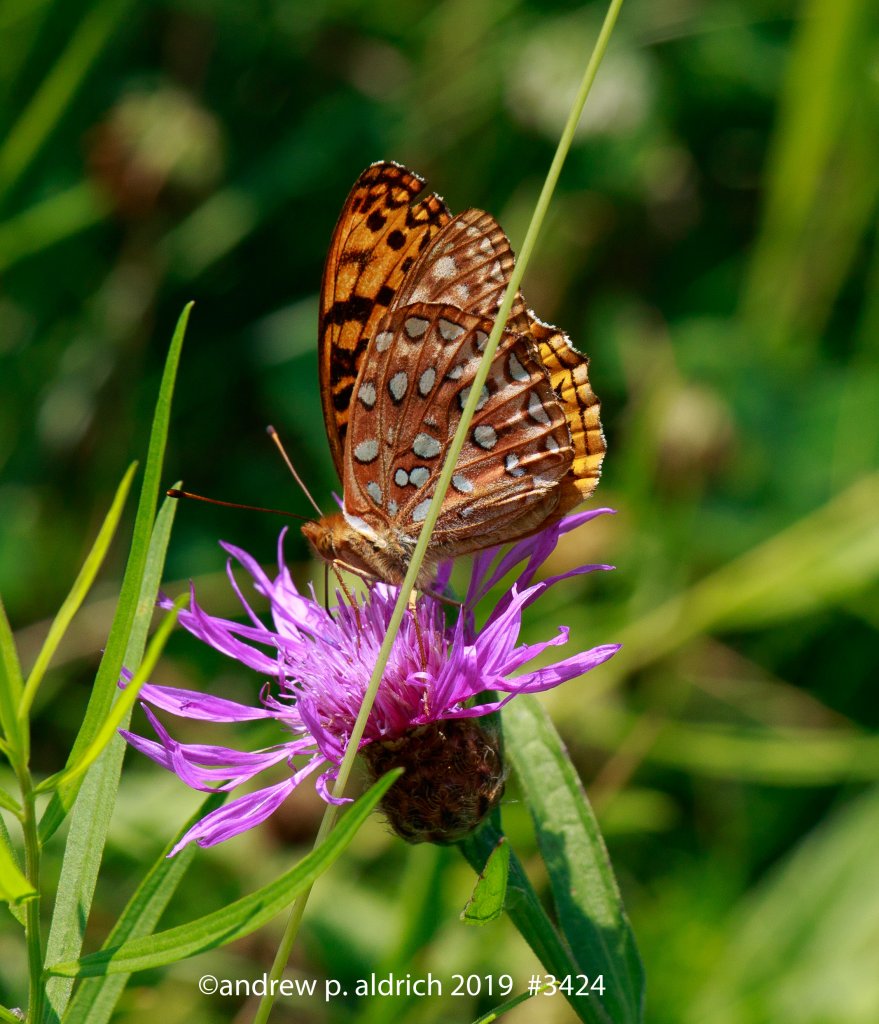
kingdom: Animalia
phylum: Arthropoda
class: Insecta
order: Lepidoptera
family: Nymphalidae
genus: Speyeria
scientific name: Speyeria aphrodite
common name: Aphrodite Fritillary
